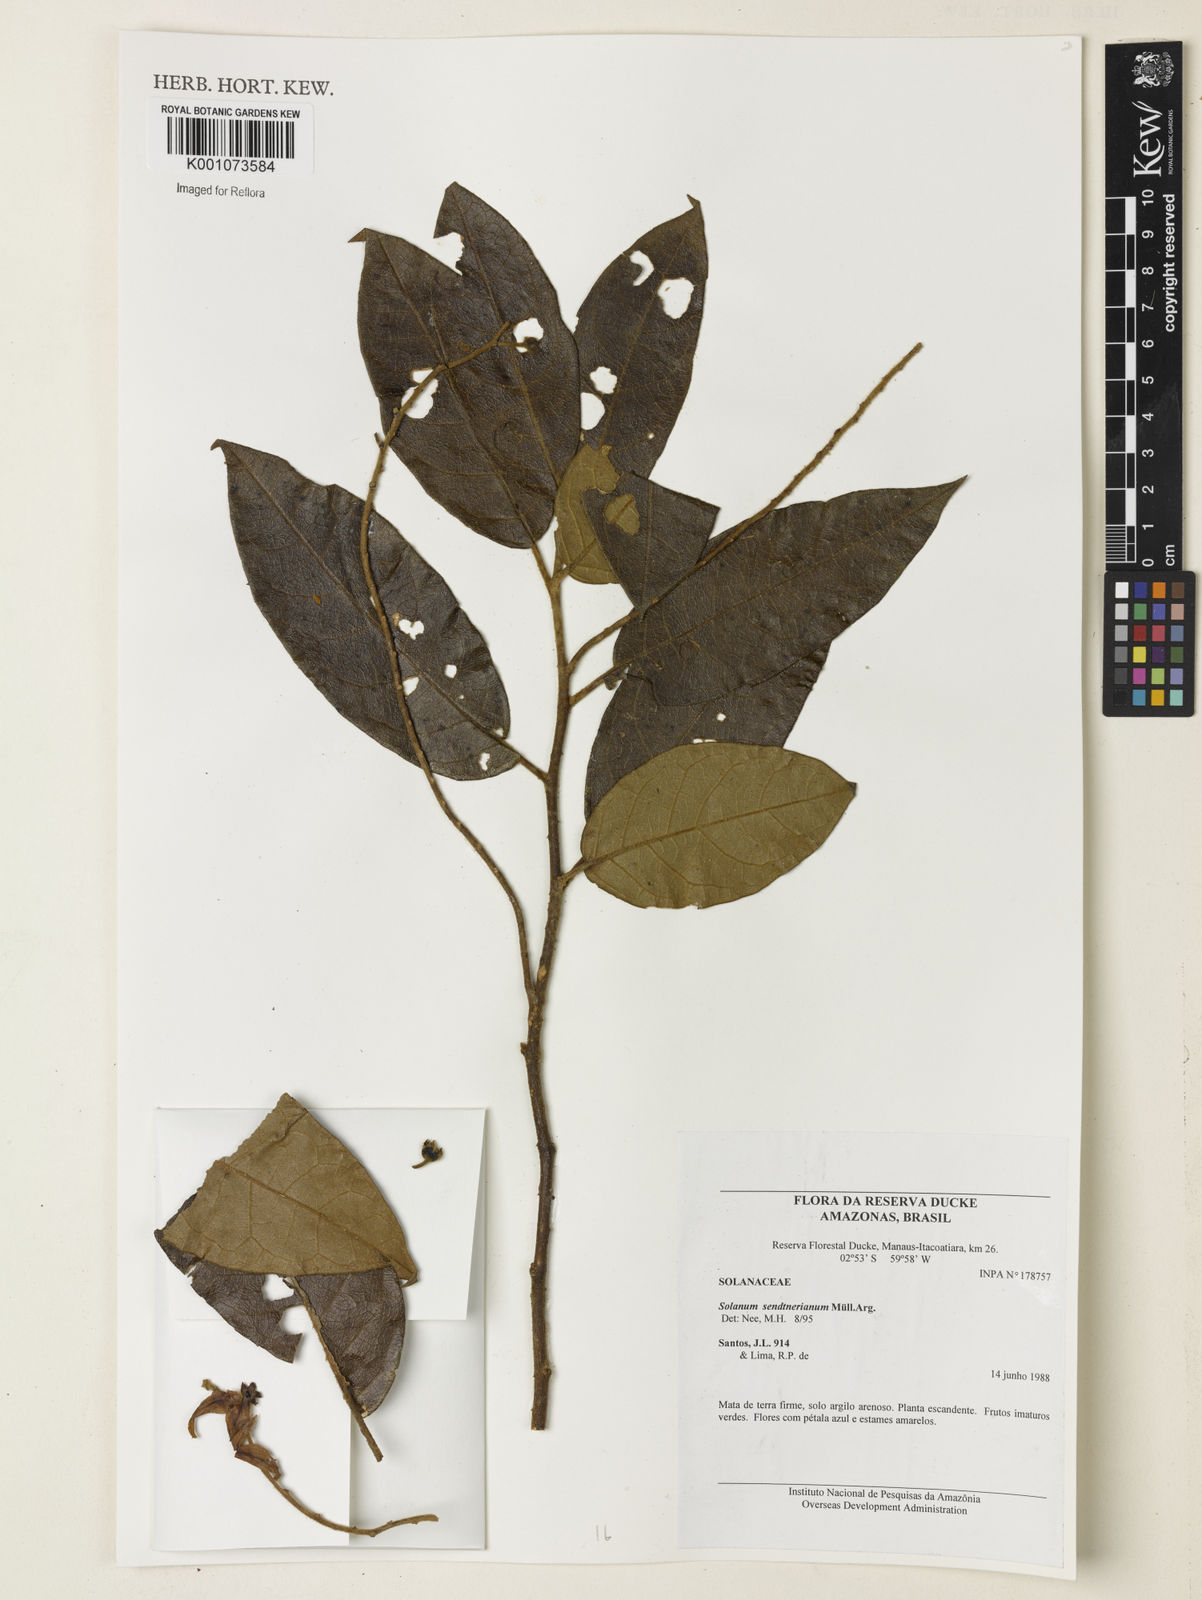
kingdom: Plantae
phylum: Tracheophyta
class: Magnoliopsida
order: Solanales
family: Solanaceae
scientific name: Solanaceae
